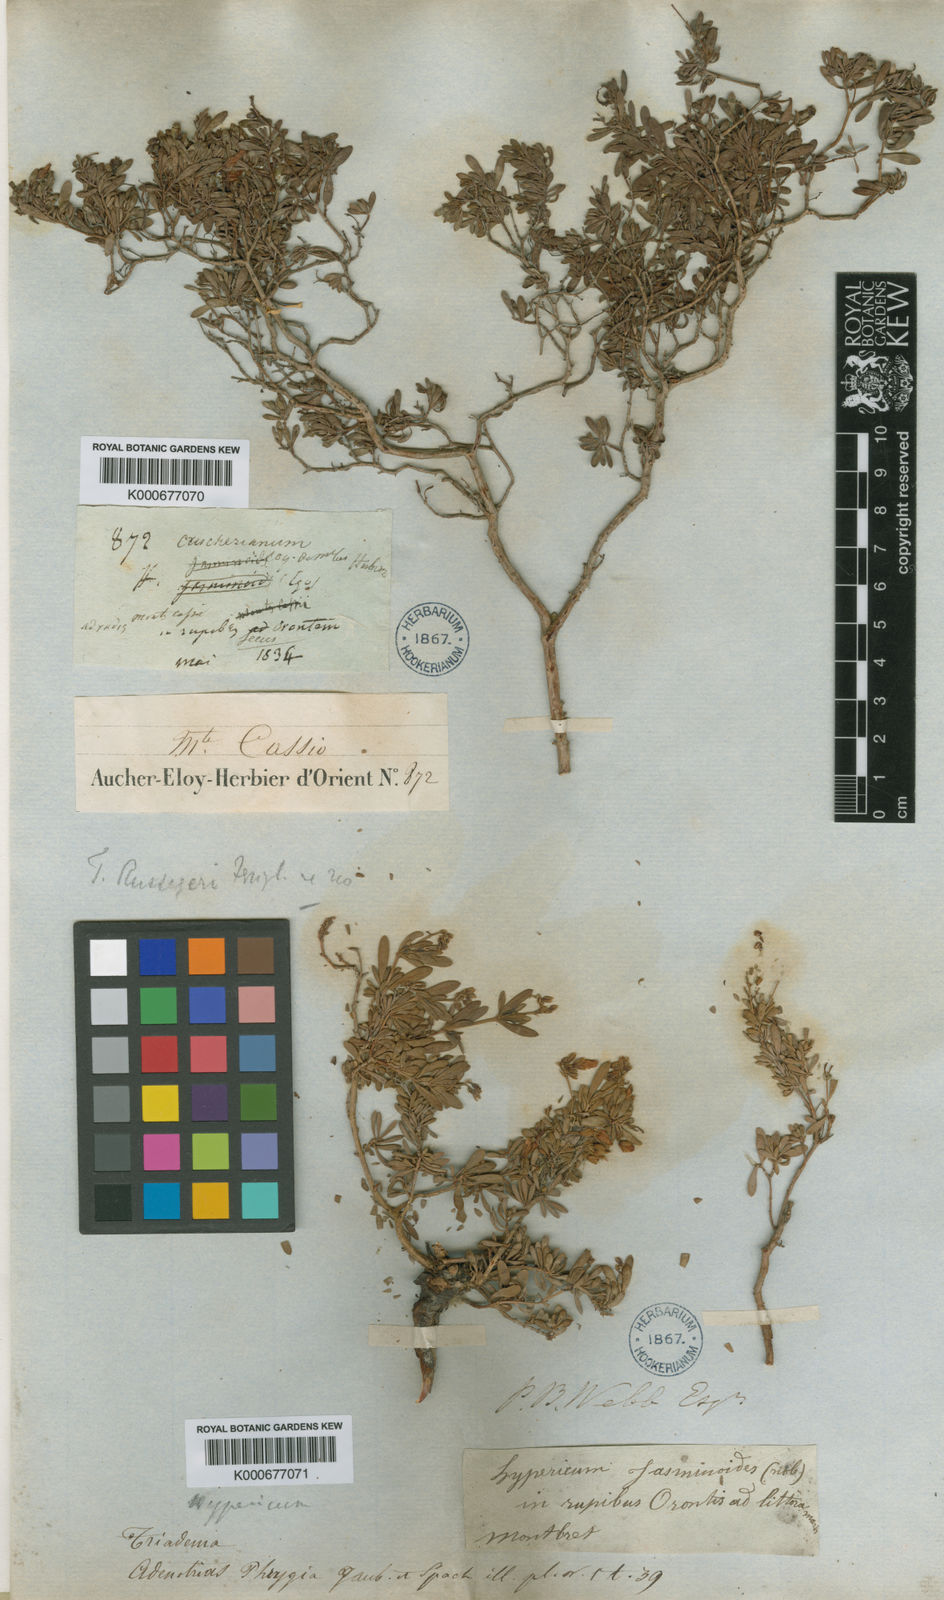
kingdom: Plantae
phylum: Tracheophyta
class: Magnoliopsida
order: Malpighiales
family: Hypericaceae
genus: Hypericum
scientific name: Hypericum russeggeri
